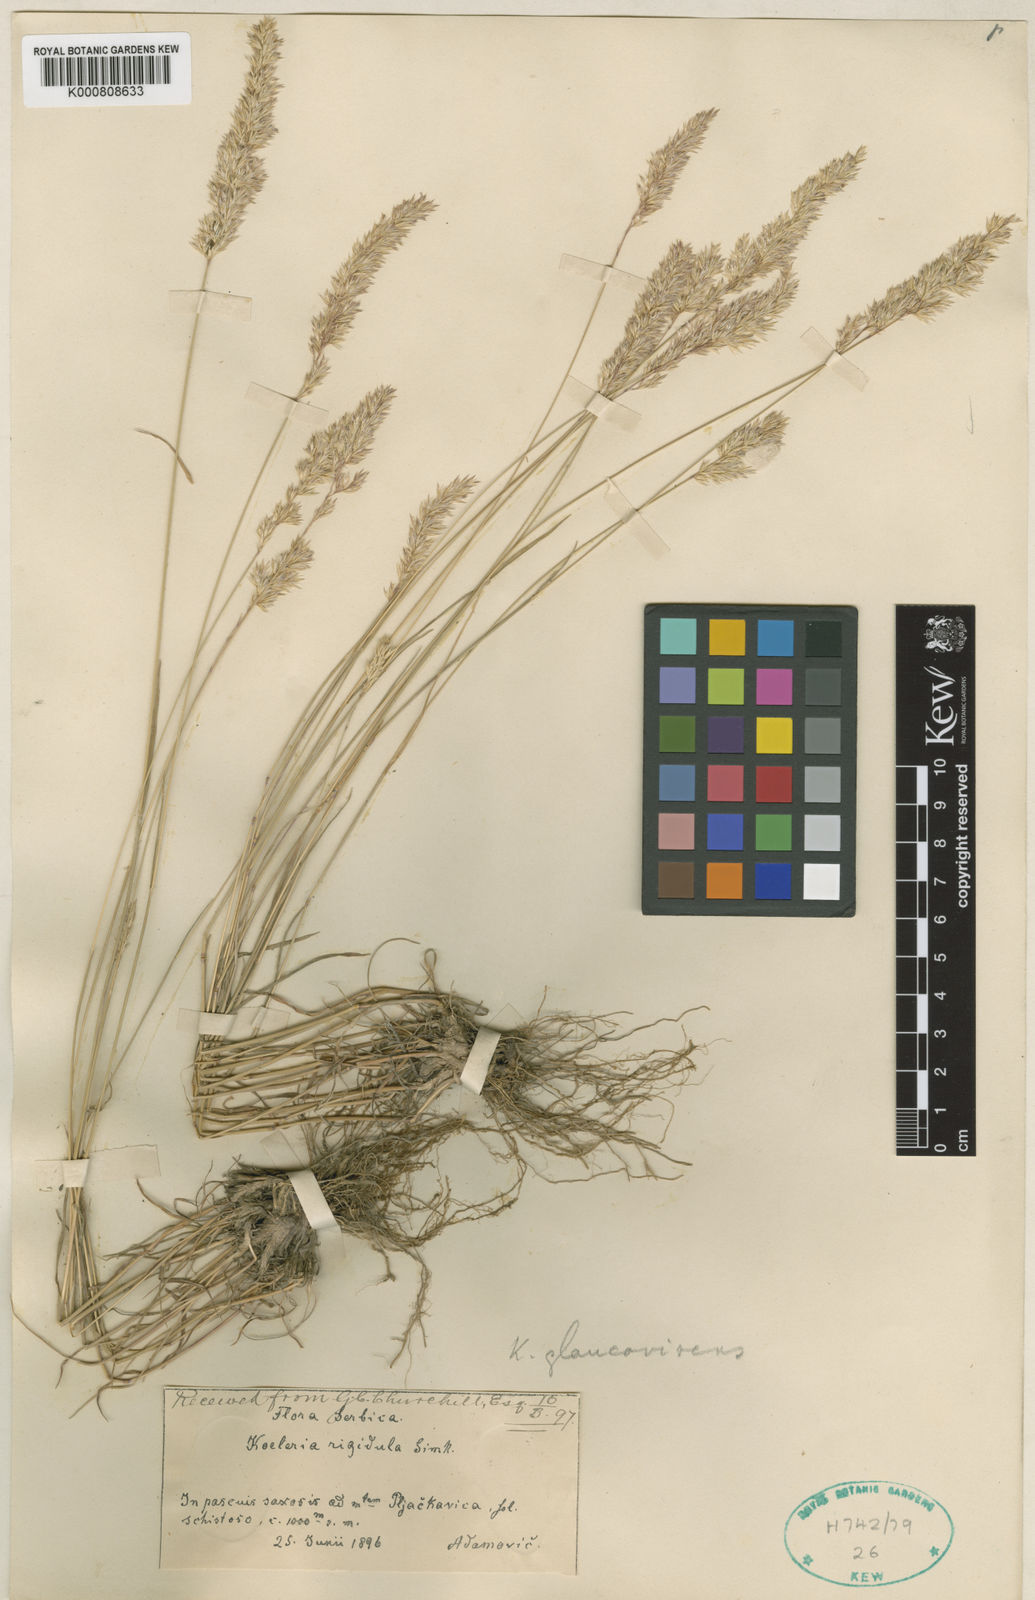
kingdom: Plantae
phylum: Tracheophyta
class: Liliopsida
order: Poales
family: Poaceae
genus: Koeleria
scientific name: Koeleria macrantha
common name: Crested hair-grass
